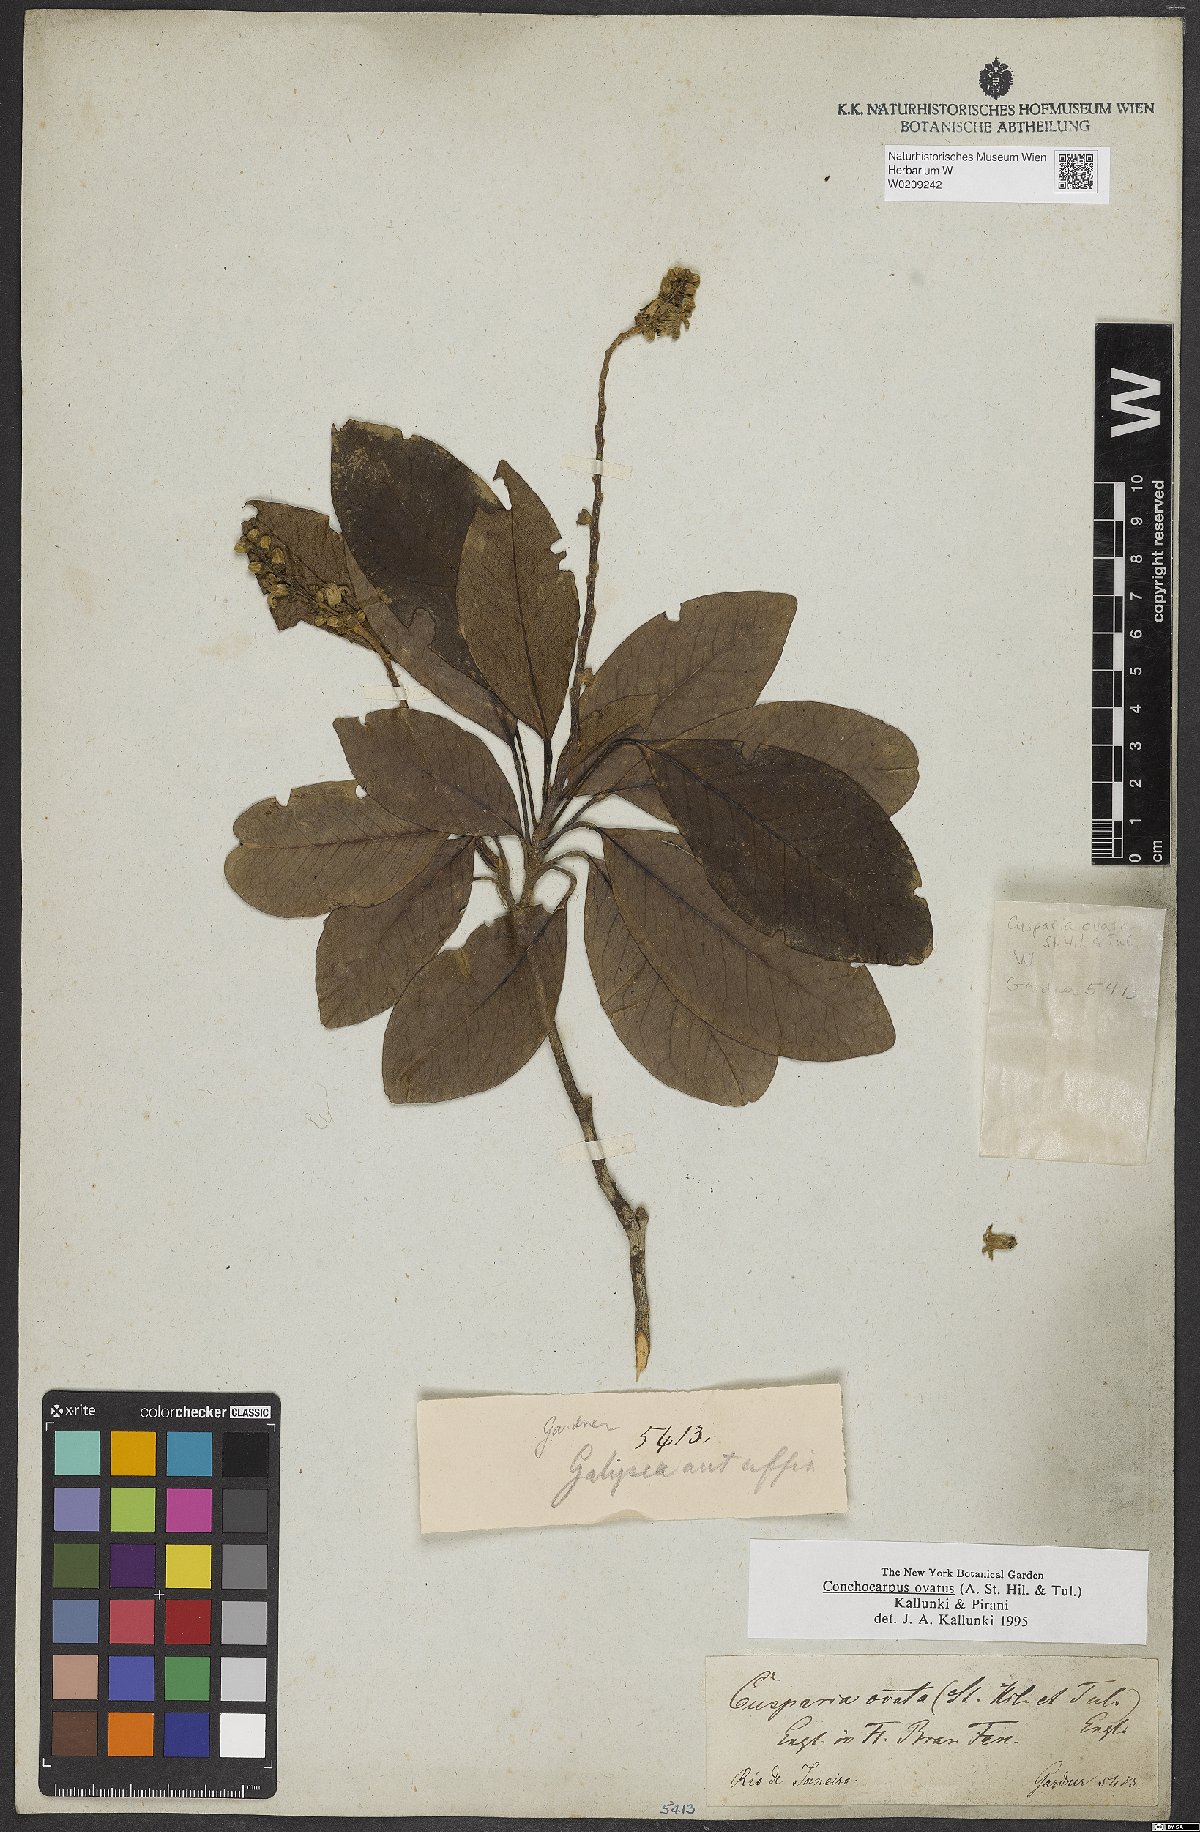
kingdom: Plantae
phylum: Tracheophyta
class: Magnoliopsida
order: Sapindales
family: Rutaceae
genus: Conchocarpus
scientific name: Conchocarpus ovatus
